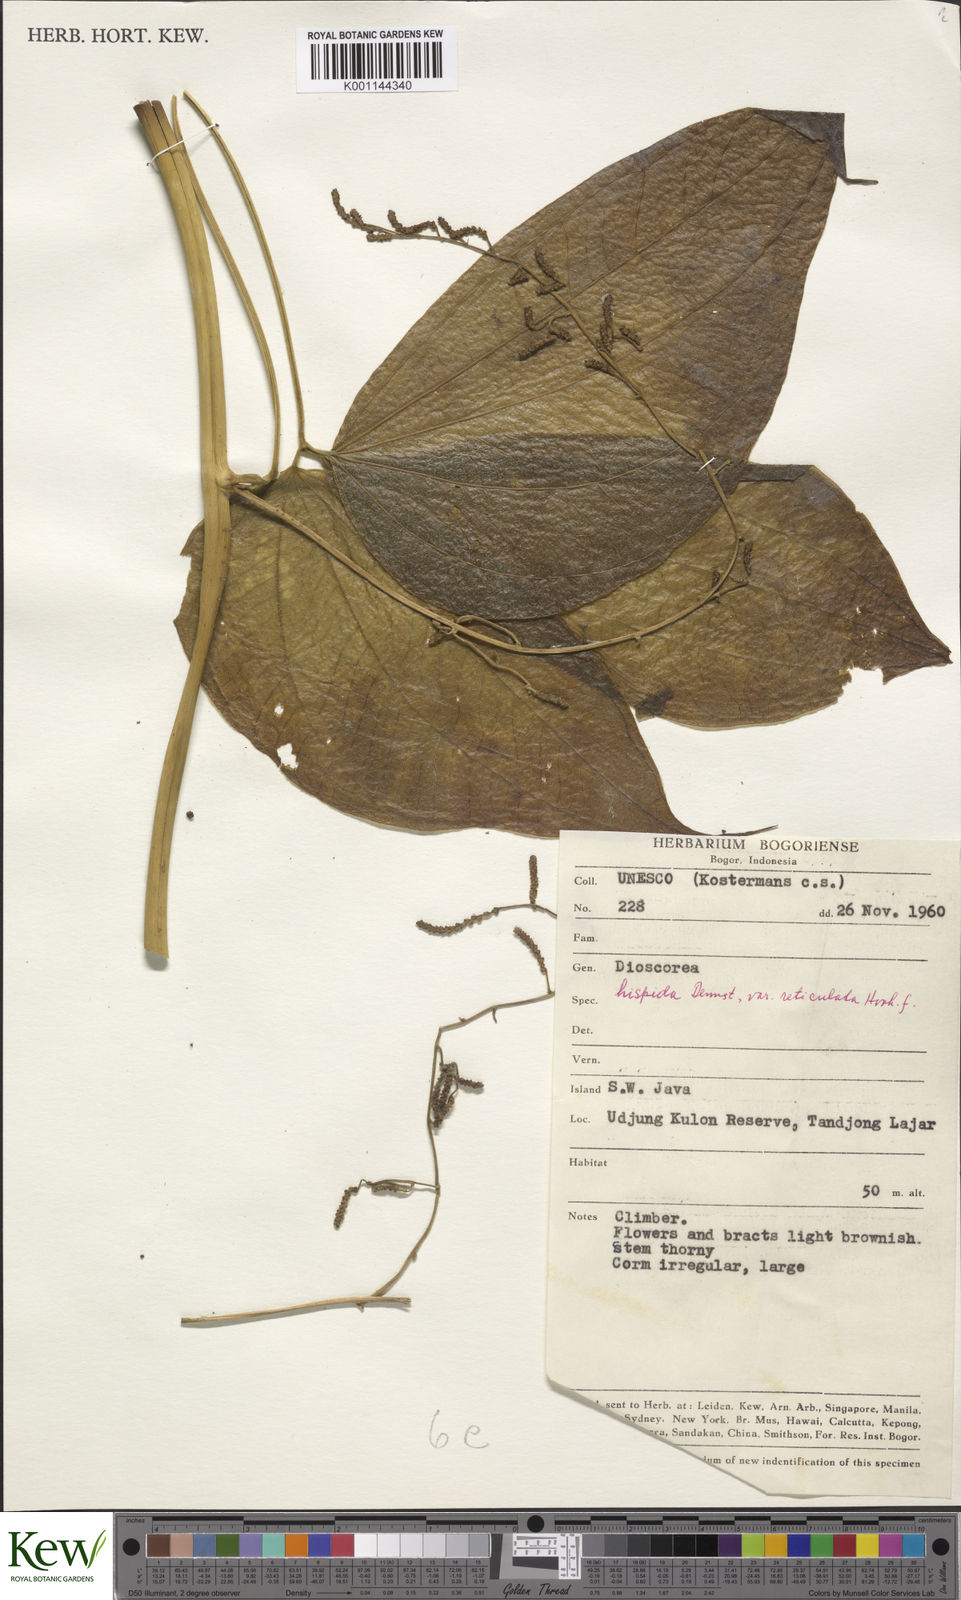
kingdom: Plantae
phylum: Tracheophyta
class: Liliopsida
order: Dioscoreales
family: Dioscoreaceae
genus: Dioscorea
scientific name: Dioscorea hispida
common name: Asiatic bitter yam
